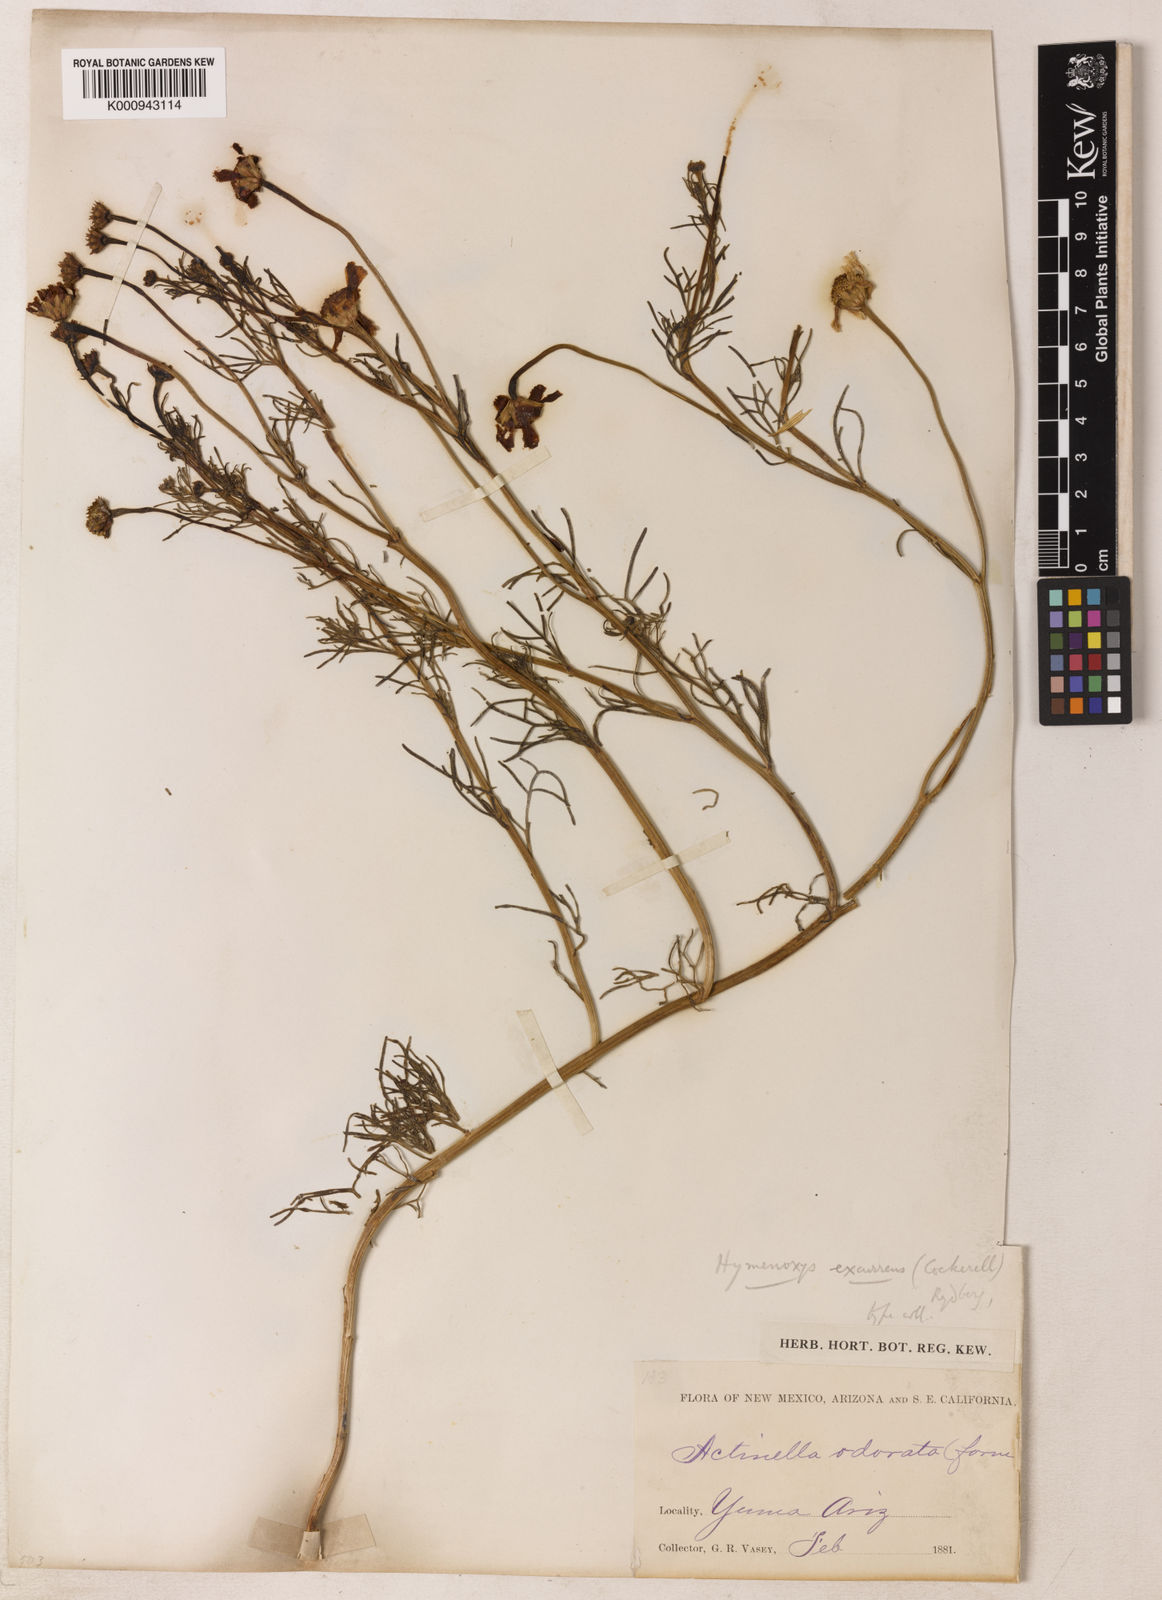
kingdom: Plantae
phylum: Tracheophyta
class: Magnoliopsida
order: Asterales
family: Asteraceae
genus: Hymenoxys
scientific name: Hymenoxys insignis
